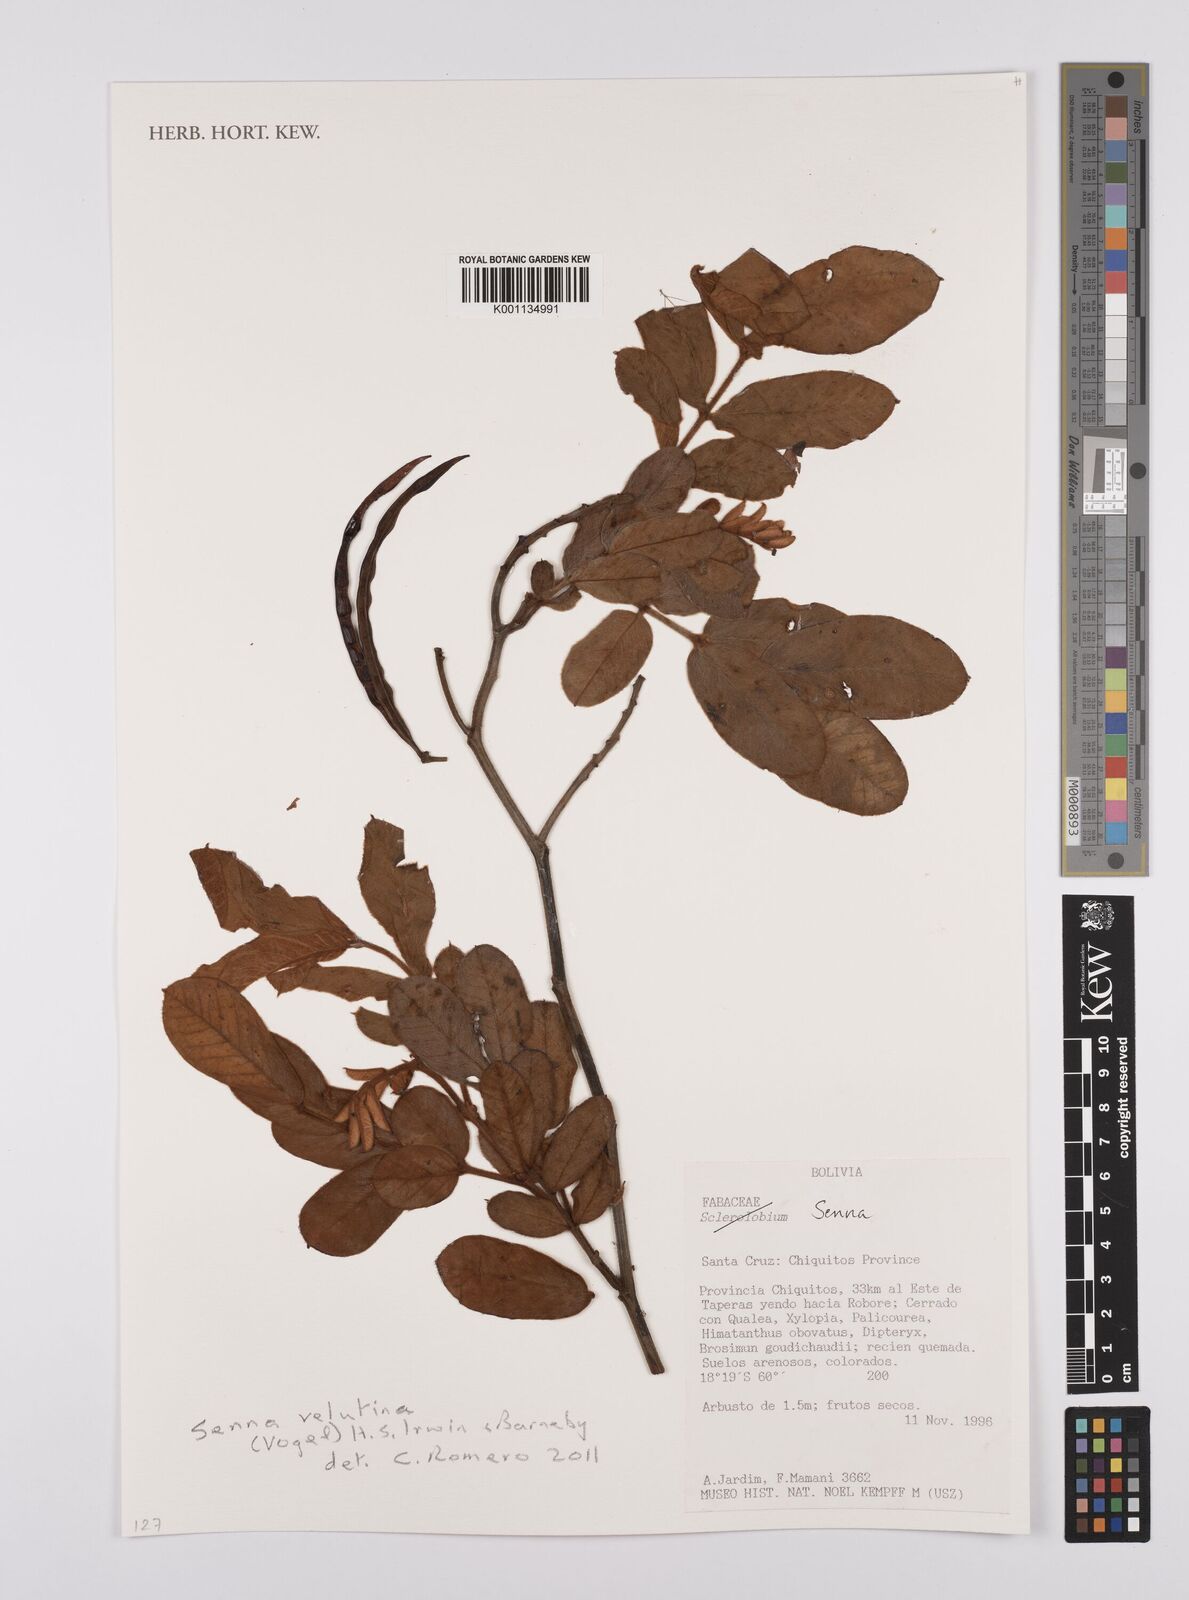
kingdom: Plantae
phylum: Tracheophyta
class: Magnoliopsida
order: Fabales
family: Fabaceae
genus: Senna
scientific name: Senna velutina
